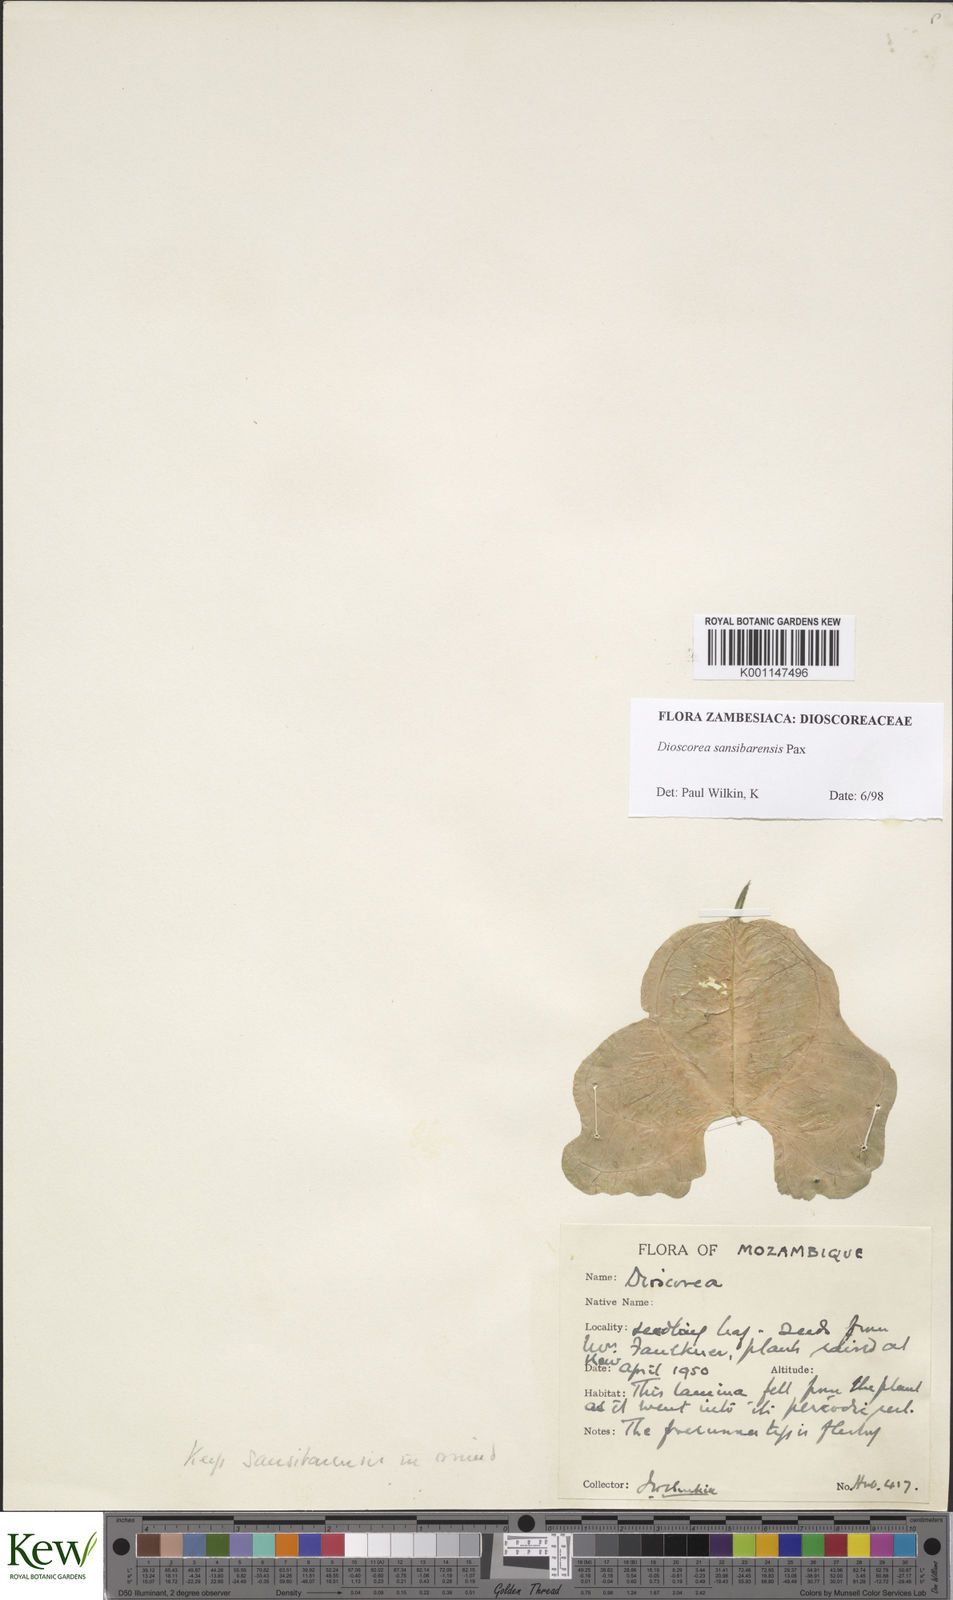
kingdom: Plantae
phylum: Tracheophyta
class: Liliopsida
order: Dioscoreales
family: Dioscoreaceae
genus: Dioscorea
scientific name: Dioscorea sansibarensis
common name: Zanzibar yam
